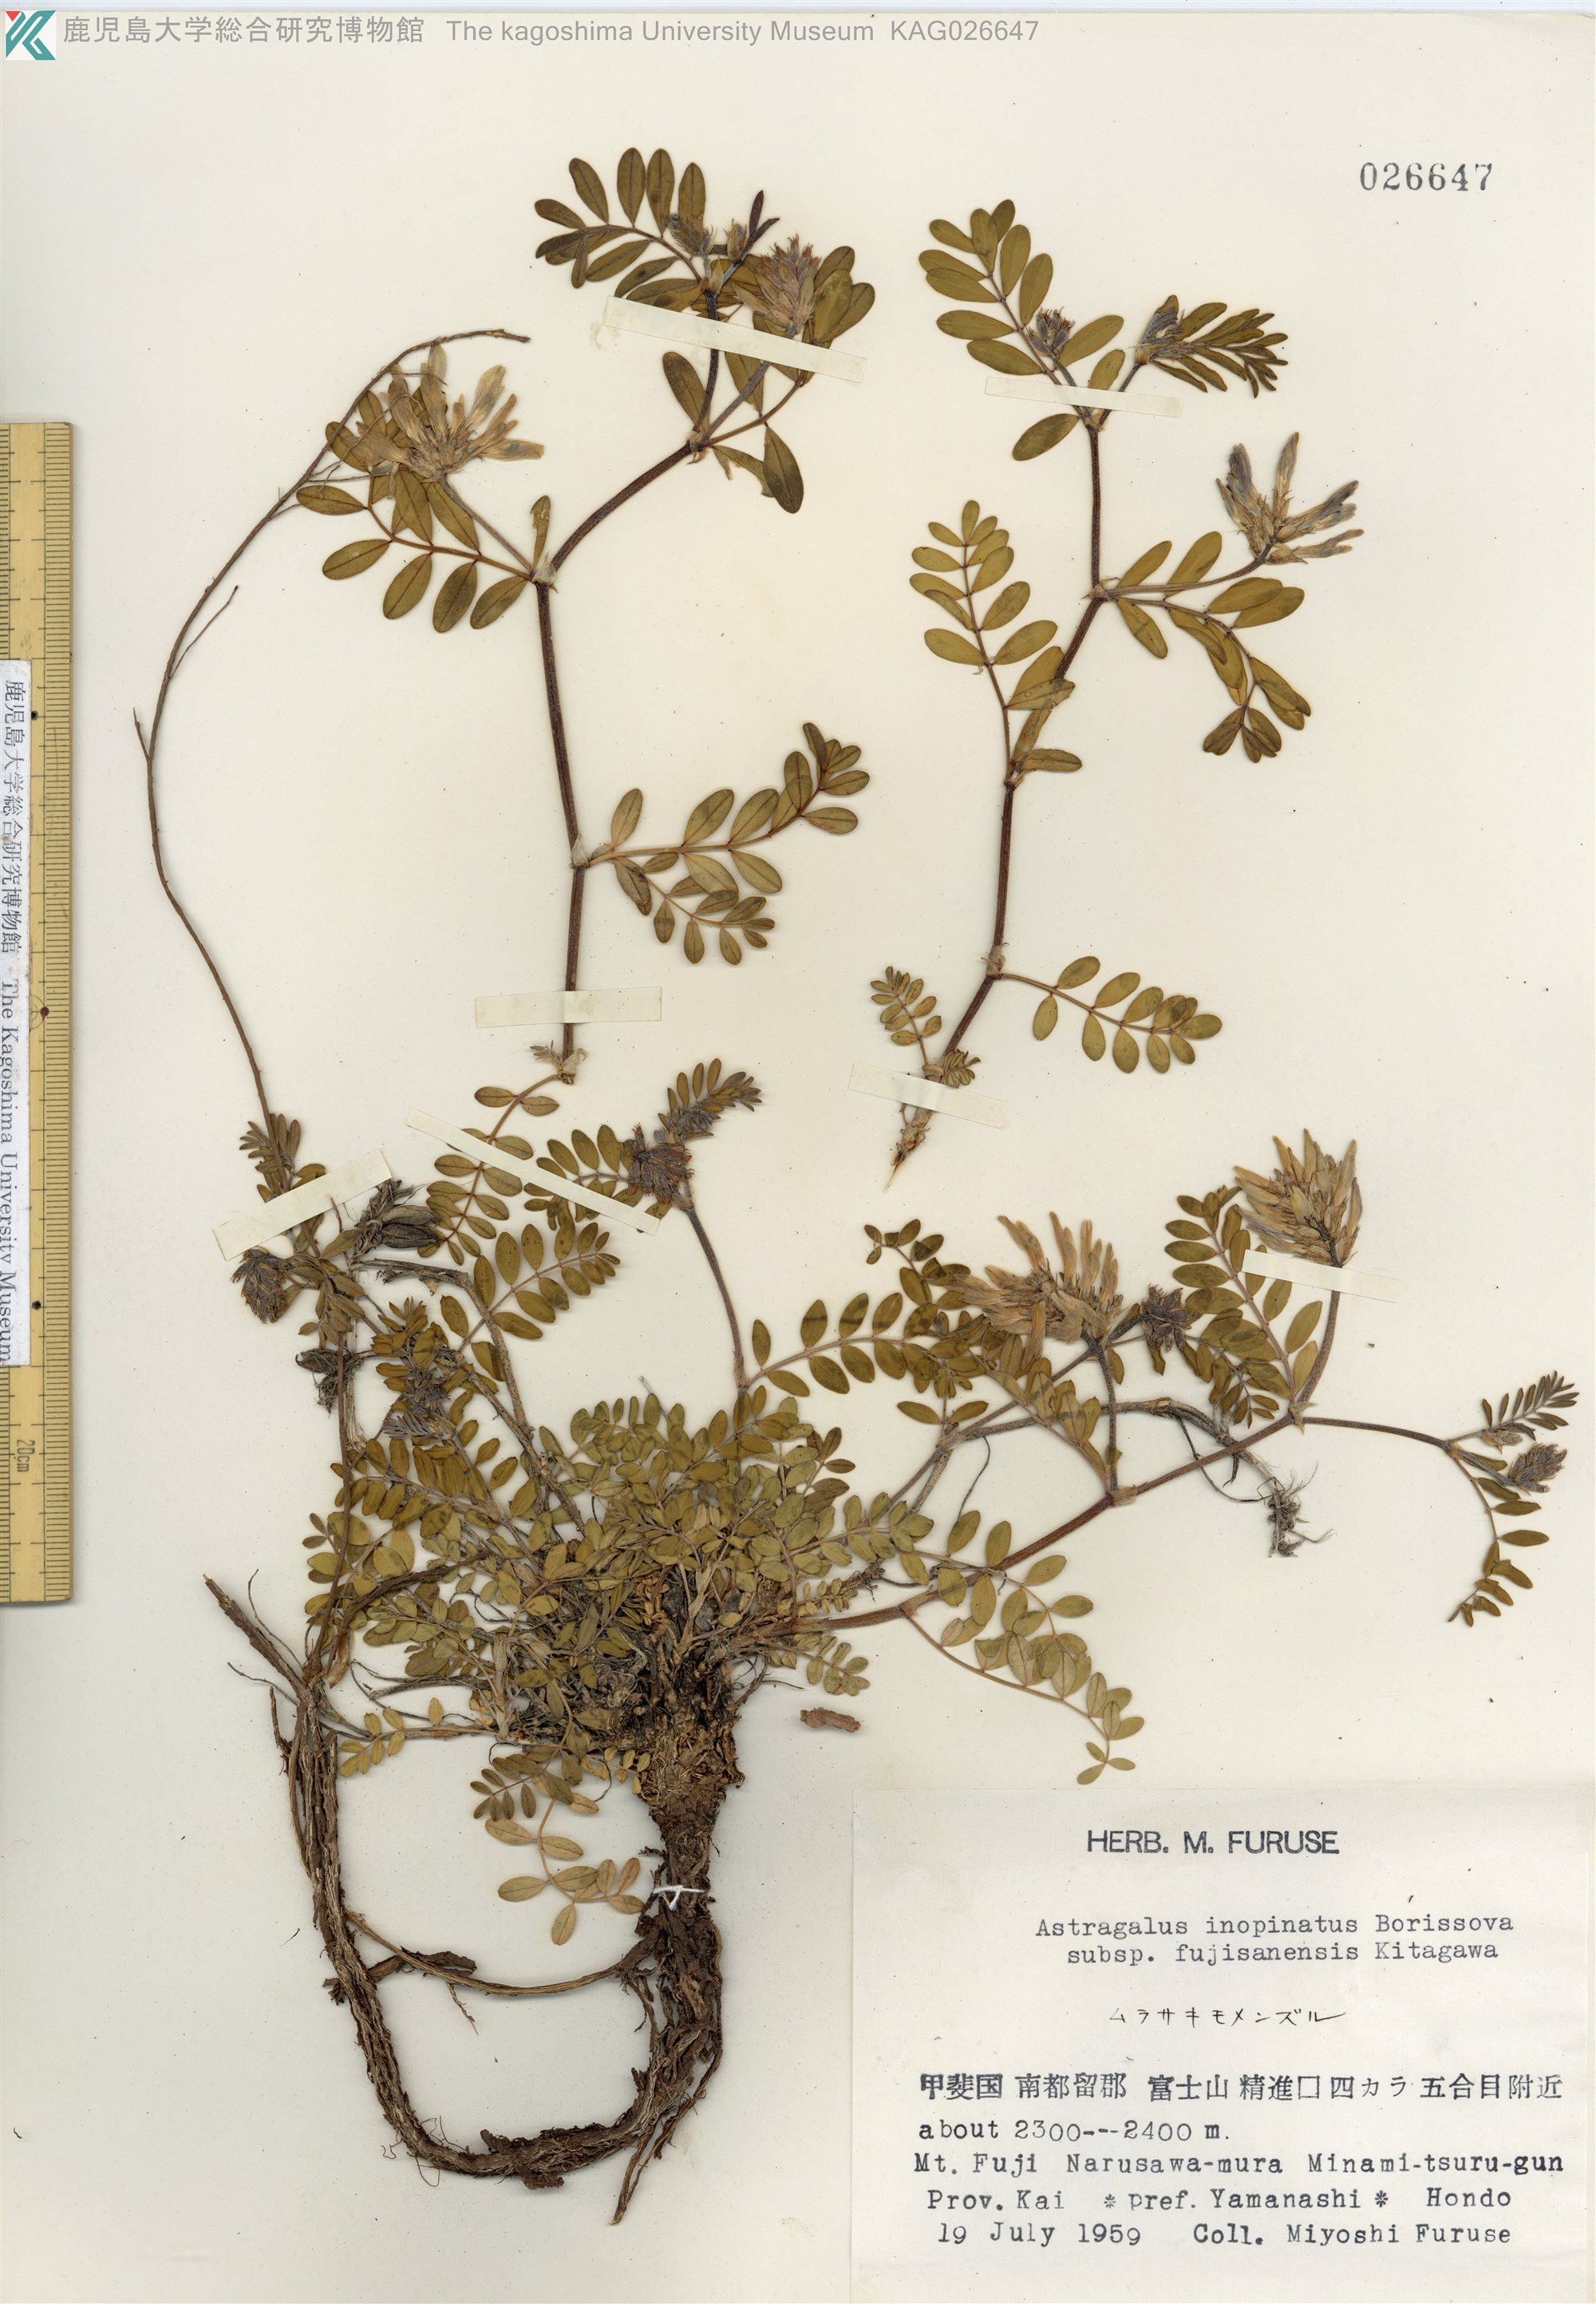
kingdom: Plantae
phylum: Tracheophyta
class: Magnoliopsida
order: Fabales
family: Fabaceae
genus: Astragalus
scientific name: Astragalus lentiginosus
